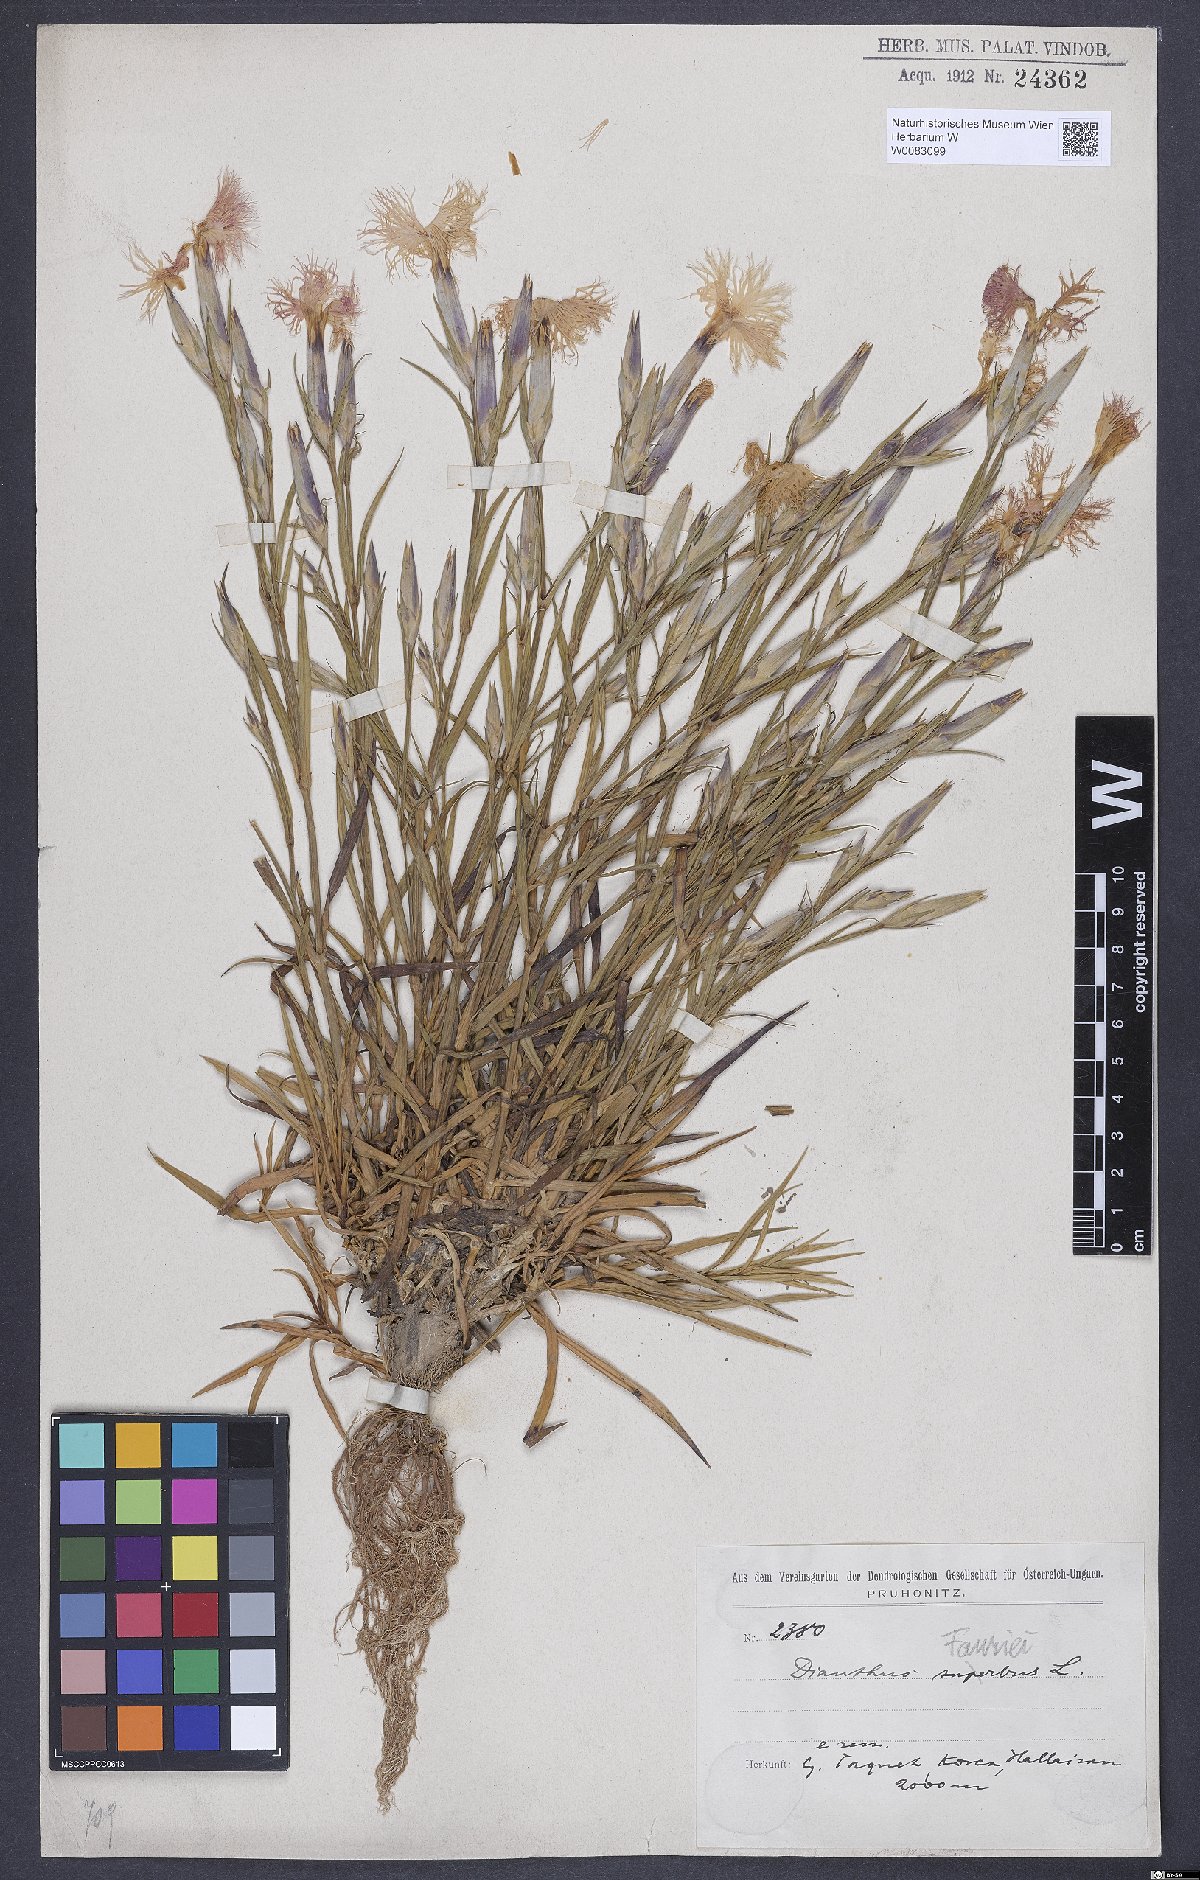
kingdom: Plantae
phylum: Tracheophyta
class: Magnoliopsida
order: Caryophyllales
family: Caryophyllaceae
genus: Dianthus
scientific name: Dianthus fauriei
